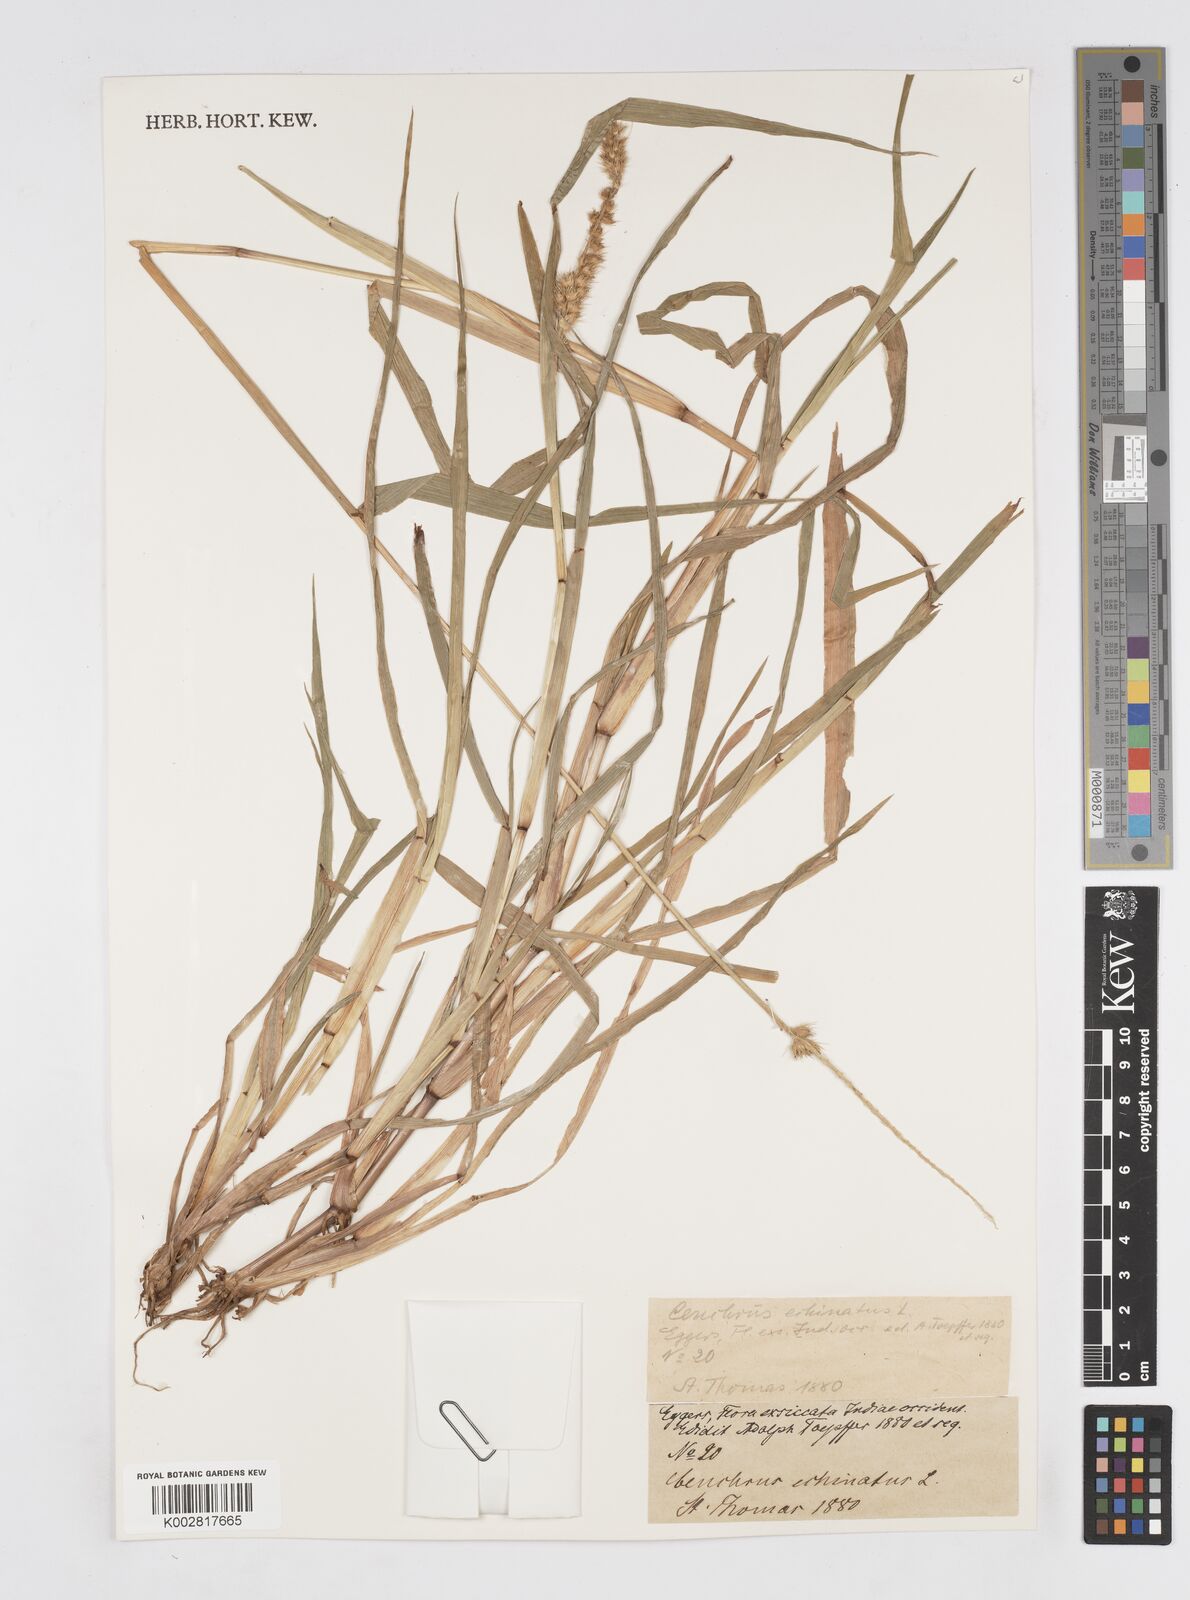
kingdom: Plantae
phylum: Tracheophyta
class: Liliopsida
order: Poales
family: Poaceae
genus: Cenchrus
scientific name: Cenchrus
